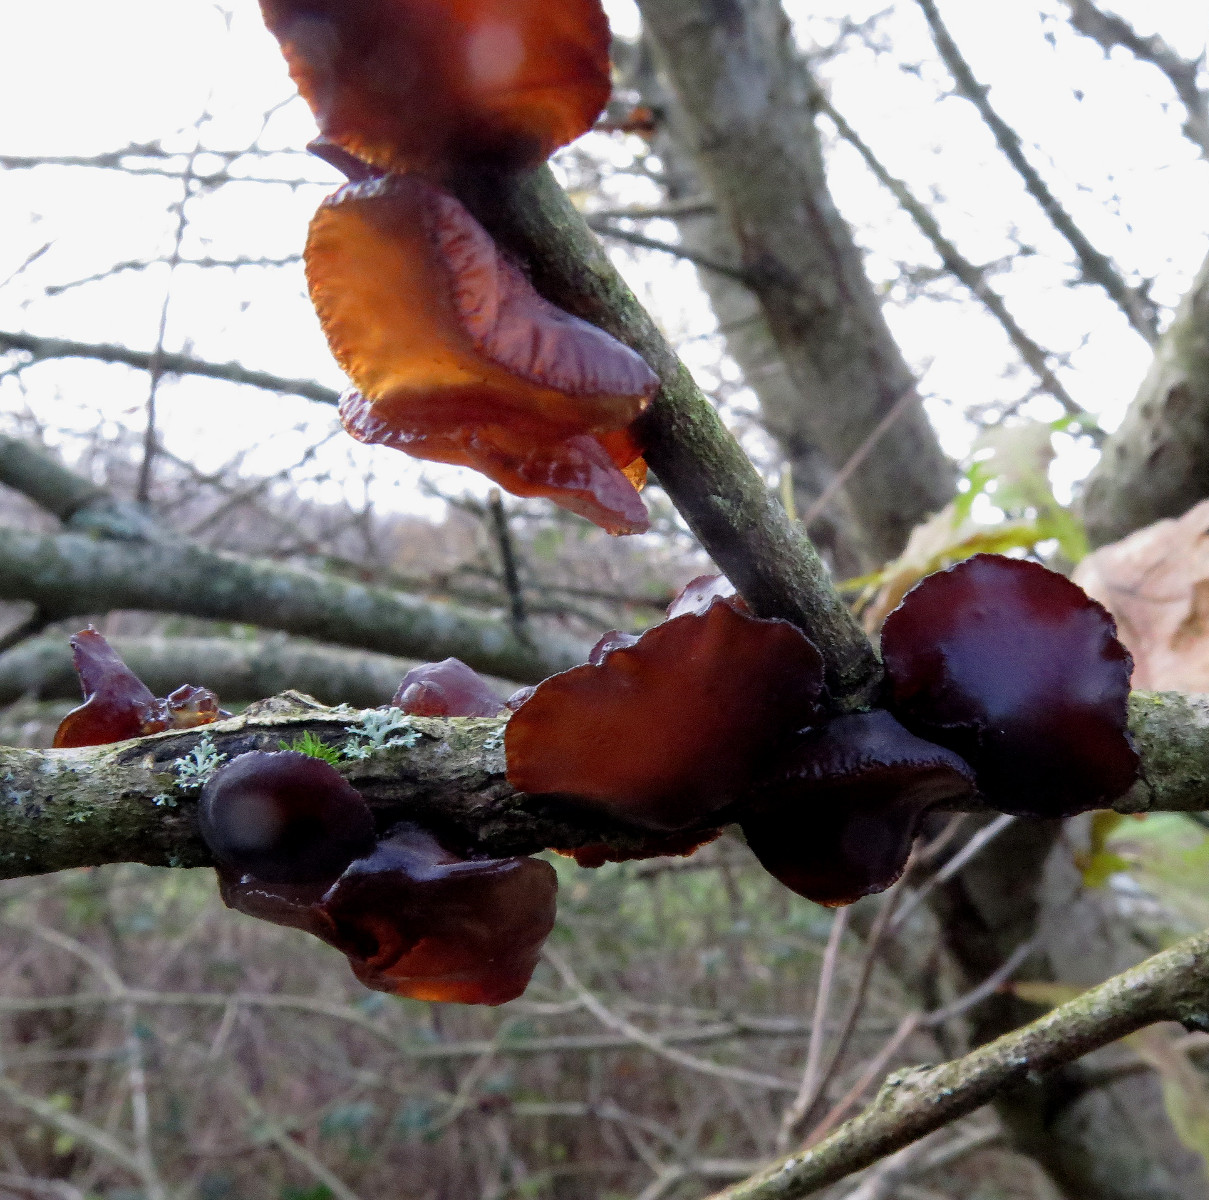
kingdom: Fungi
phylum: Basidiomycota
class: Agaricomycetes
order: Auriculariales
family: Auriculariaceae
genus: Exidia
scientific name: Exidia recisa
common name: pile-bævretop
